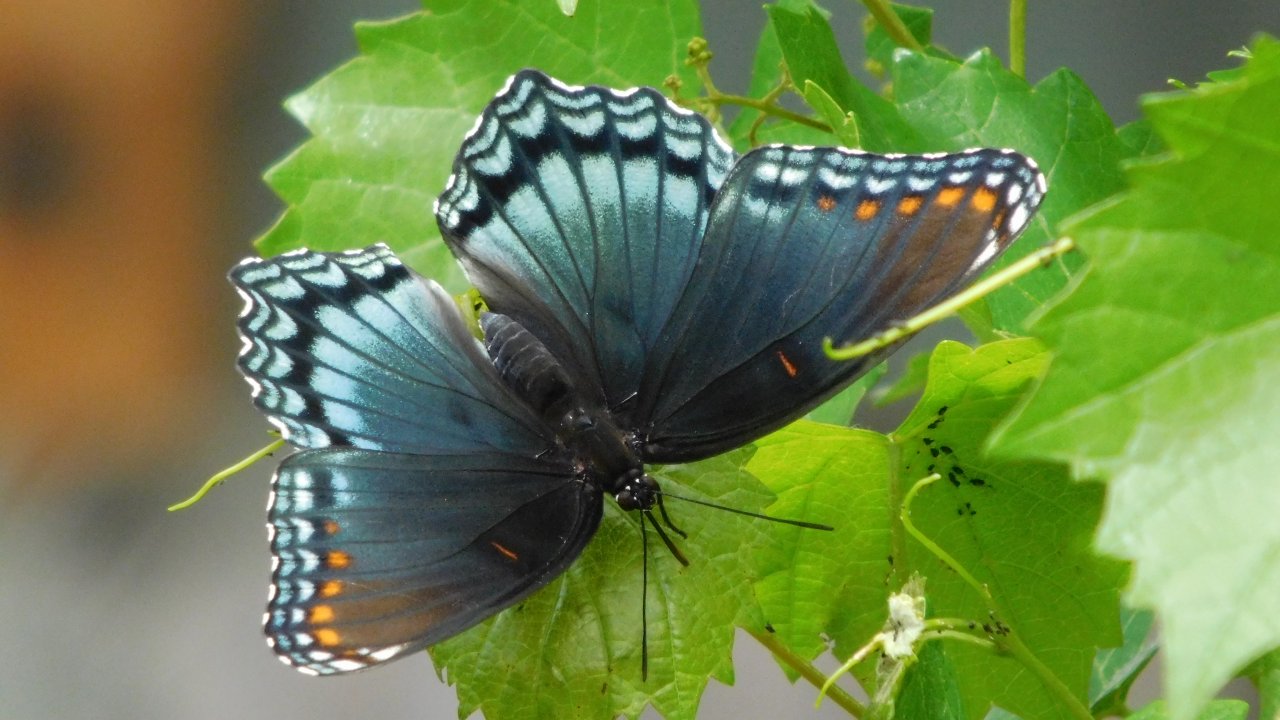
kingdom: Animalia
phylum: Arthropoda
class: Insecta
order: Lepidoptera
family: Nymphalidae
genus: Limenitis
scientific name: Limenitis astyanax
